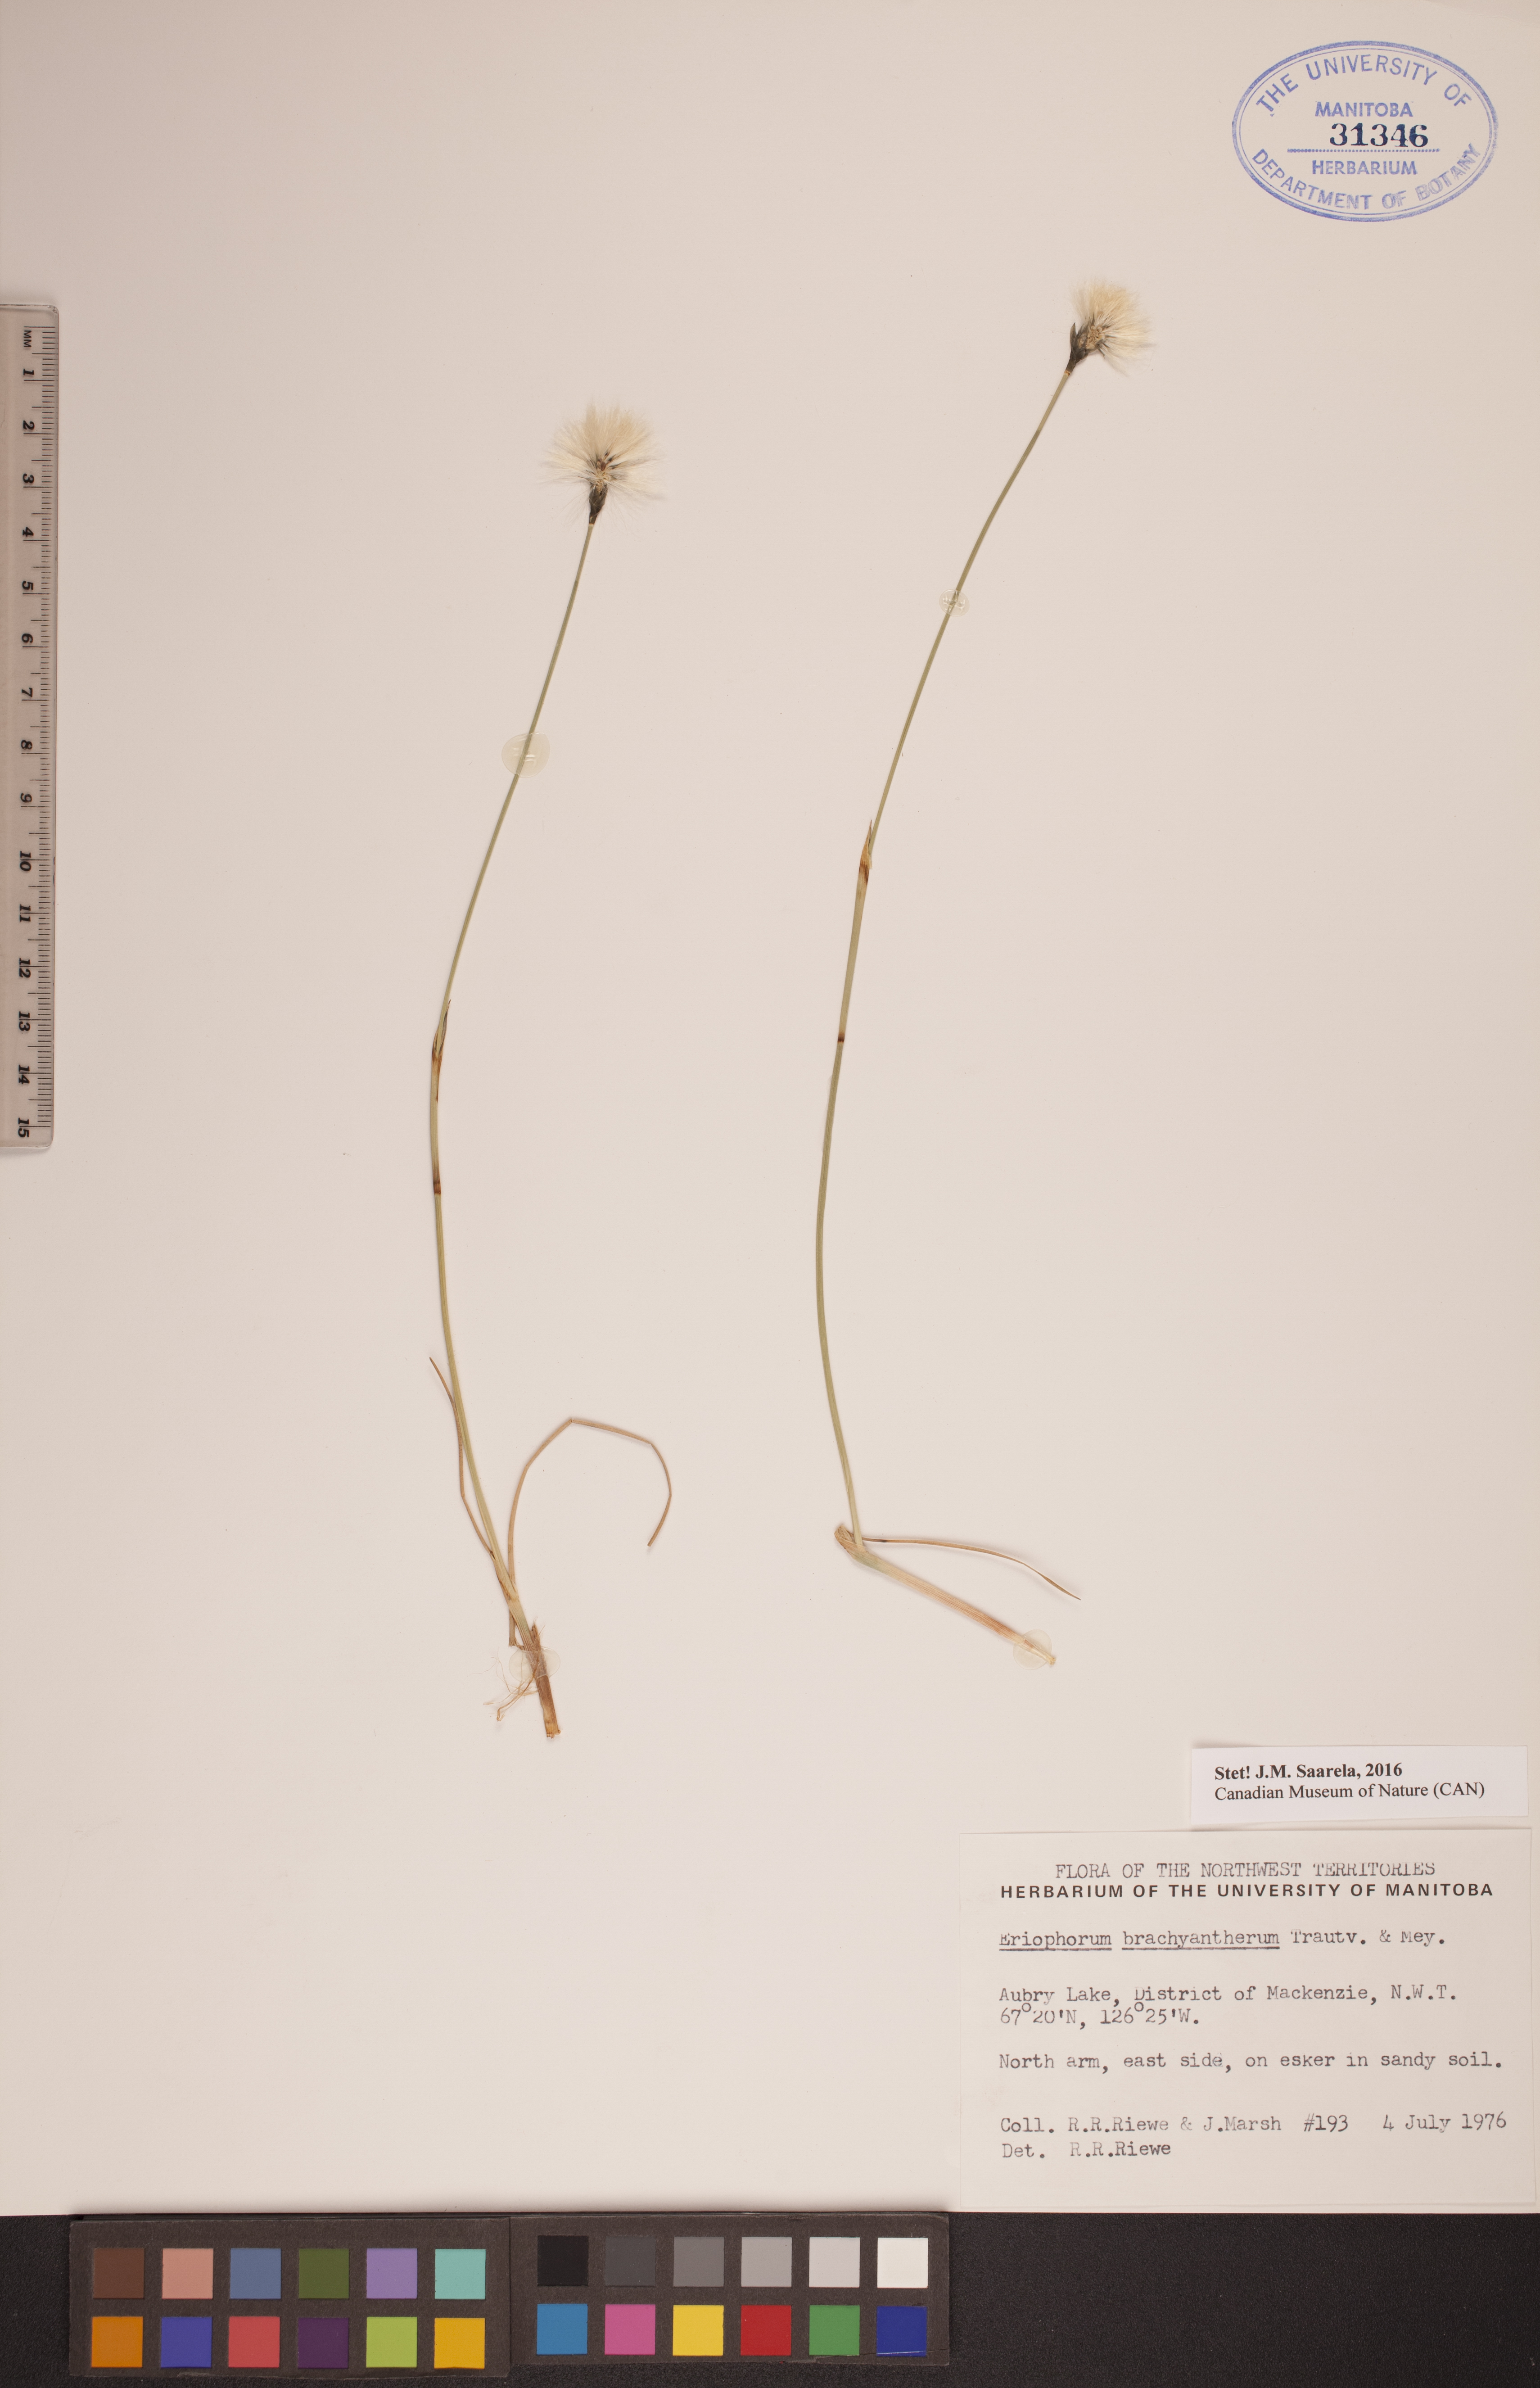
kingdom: Plantae
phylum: Tracheophyta
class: Liliopsida
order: Poales
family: Cyperaceae
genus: Eriophorum
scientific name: Eriophorum brachyantherum
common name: Closed-sheathed cottongrass
